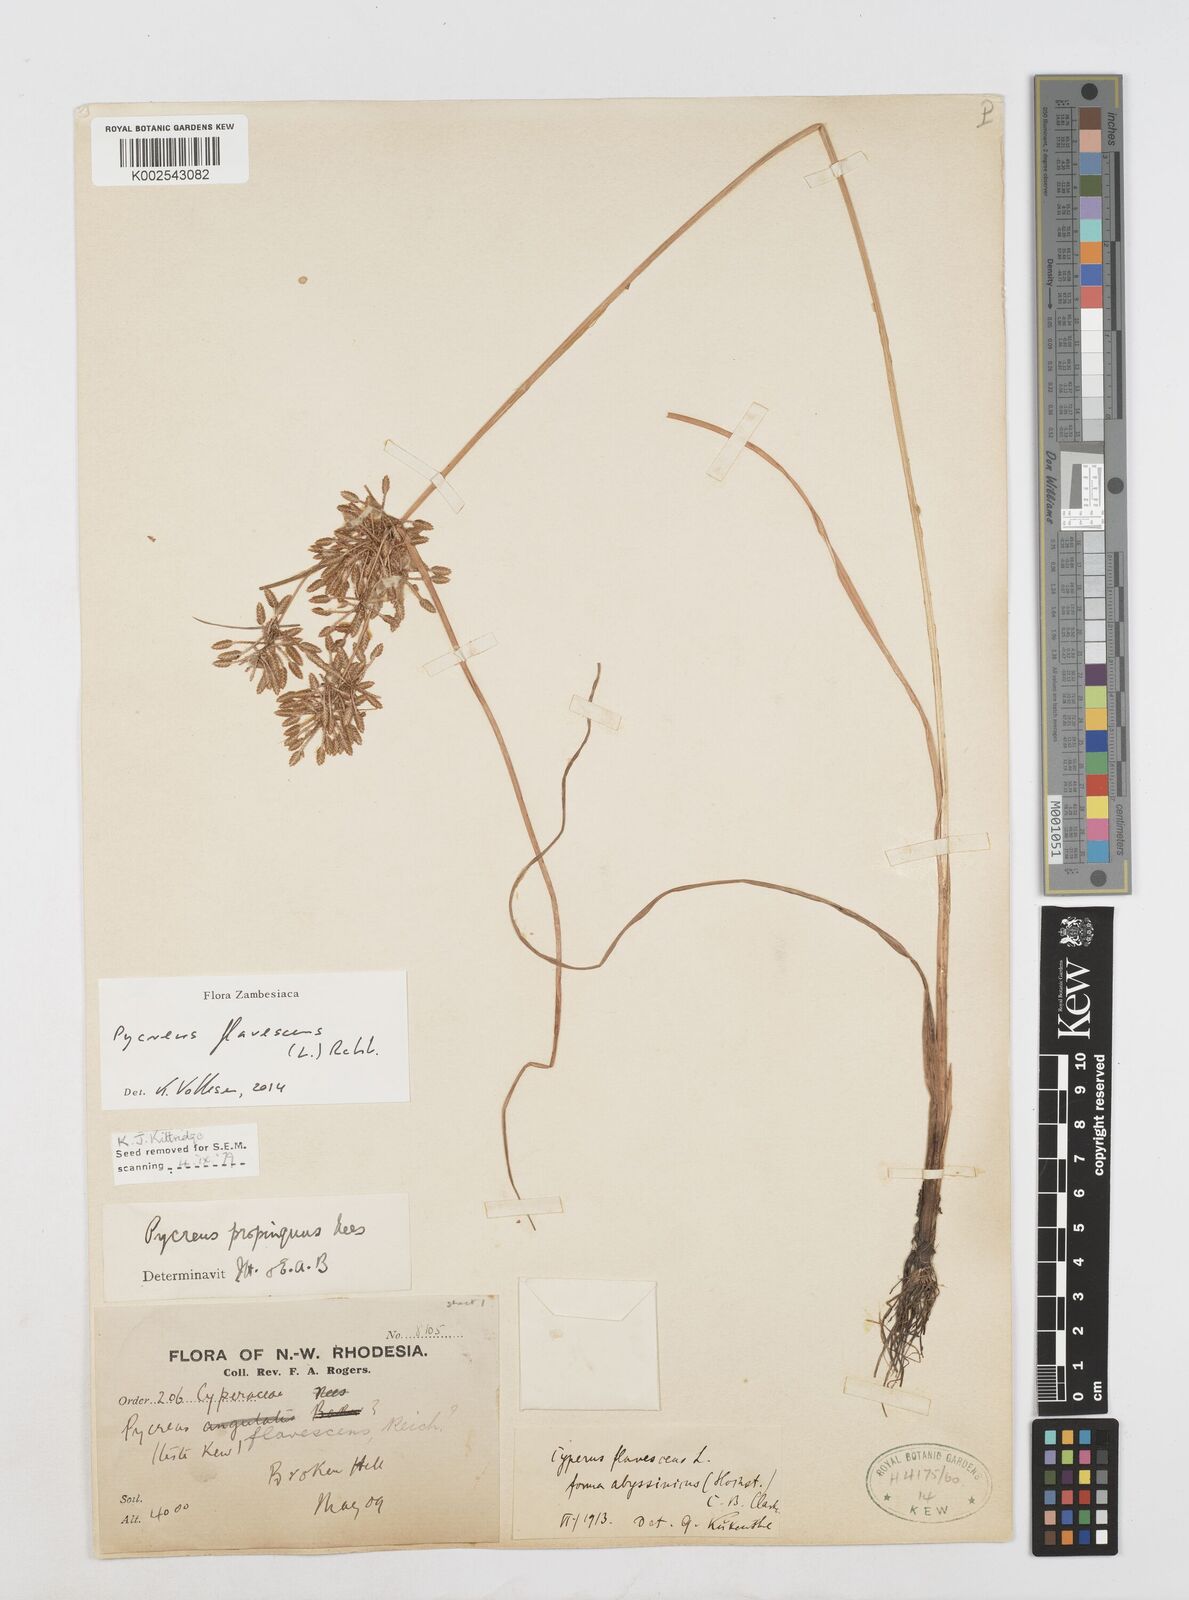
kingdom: Plantae
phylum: Tracheophyta
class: Liliopsida
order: Poales
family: Cyperaceae
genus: Cyperus
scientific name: Cyperus flavescens
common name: Yellow galingale
